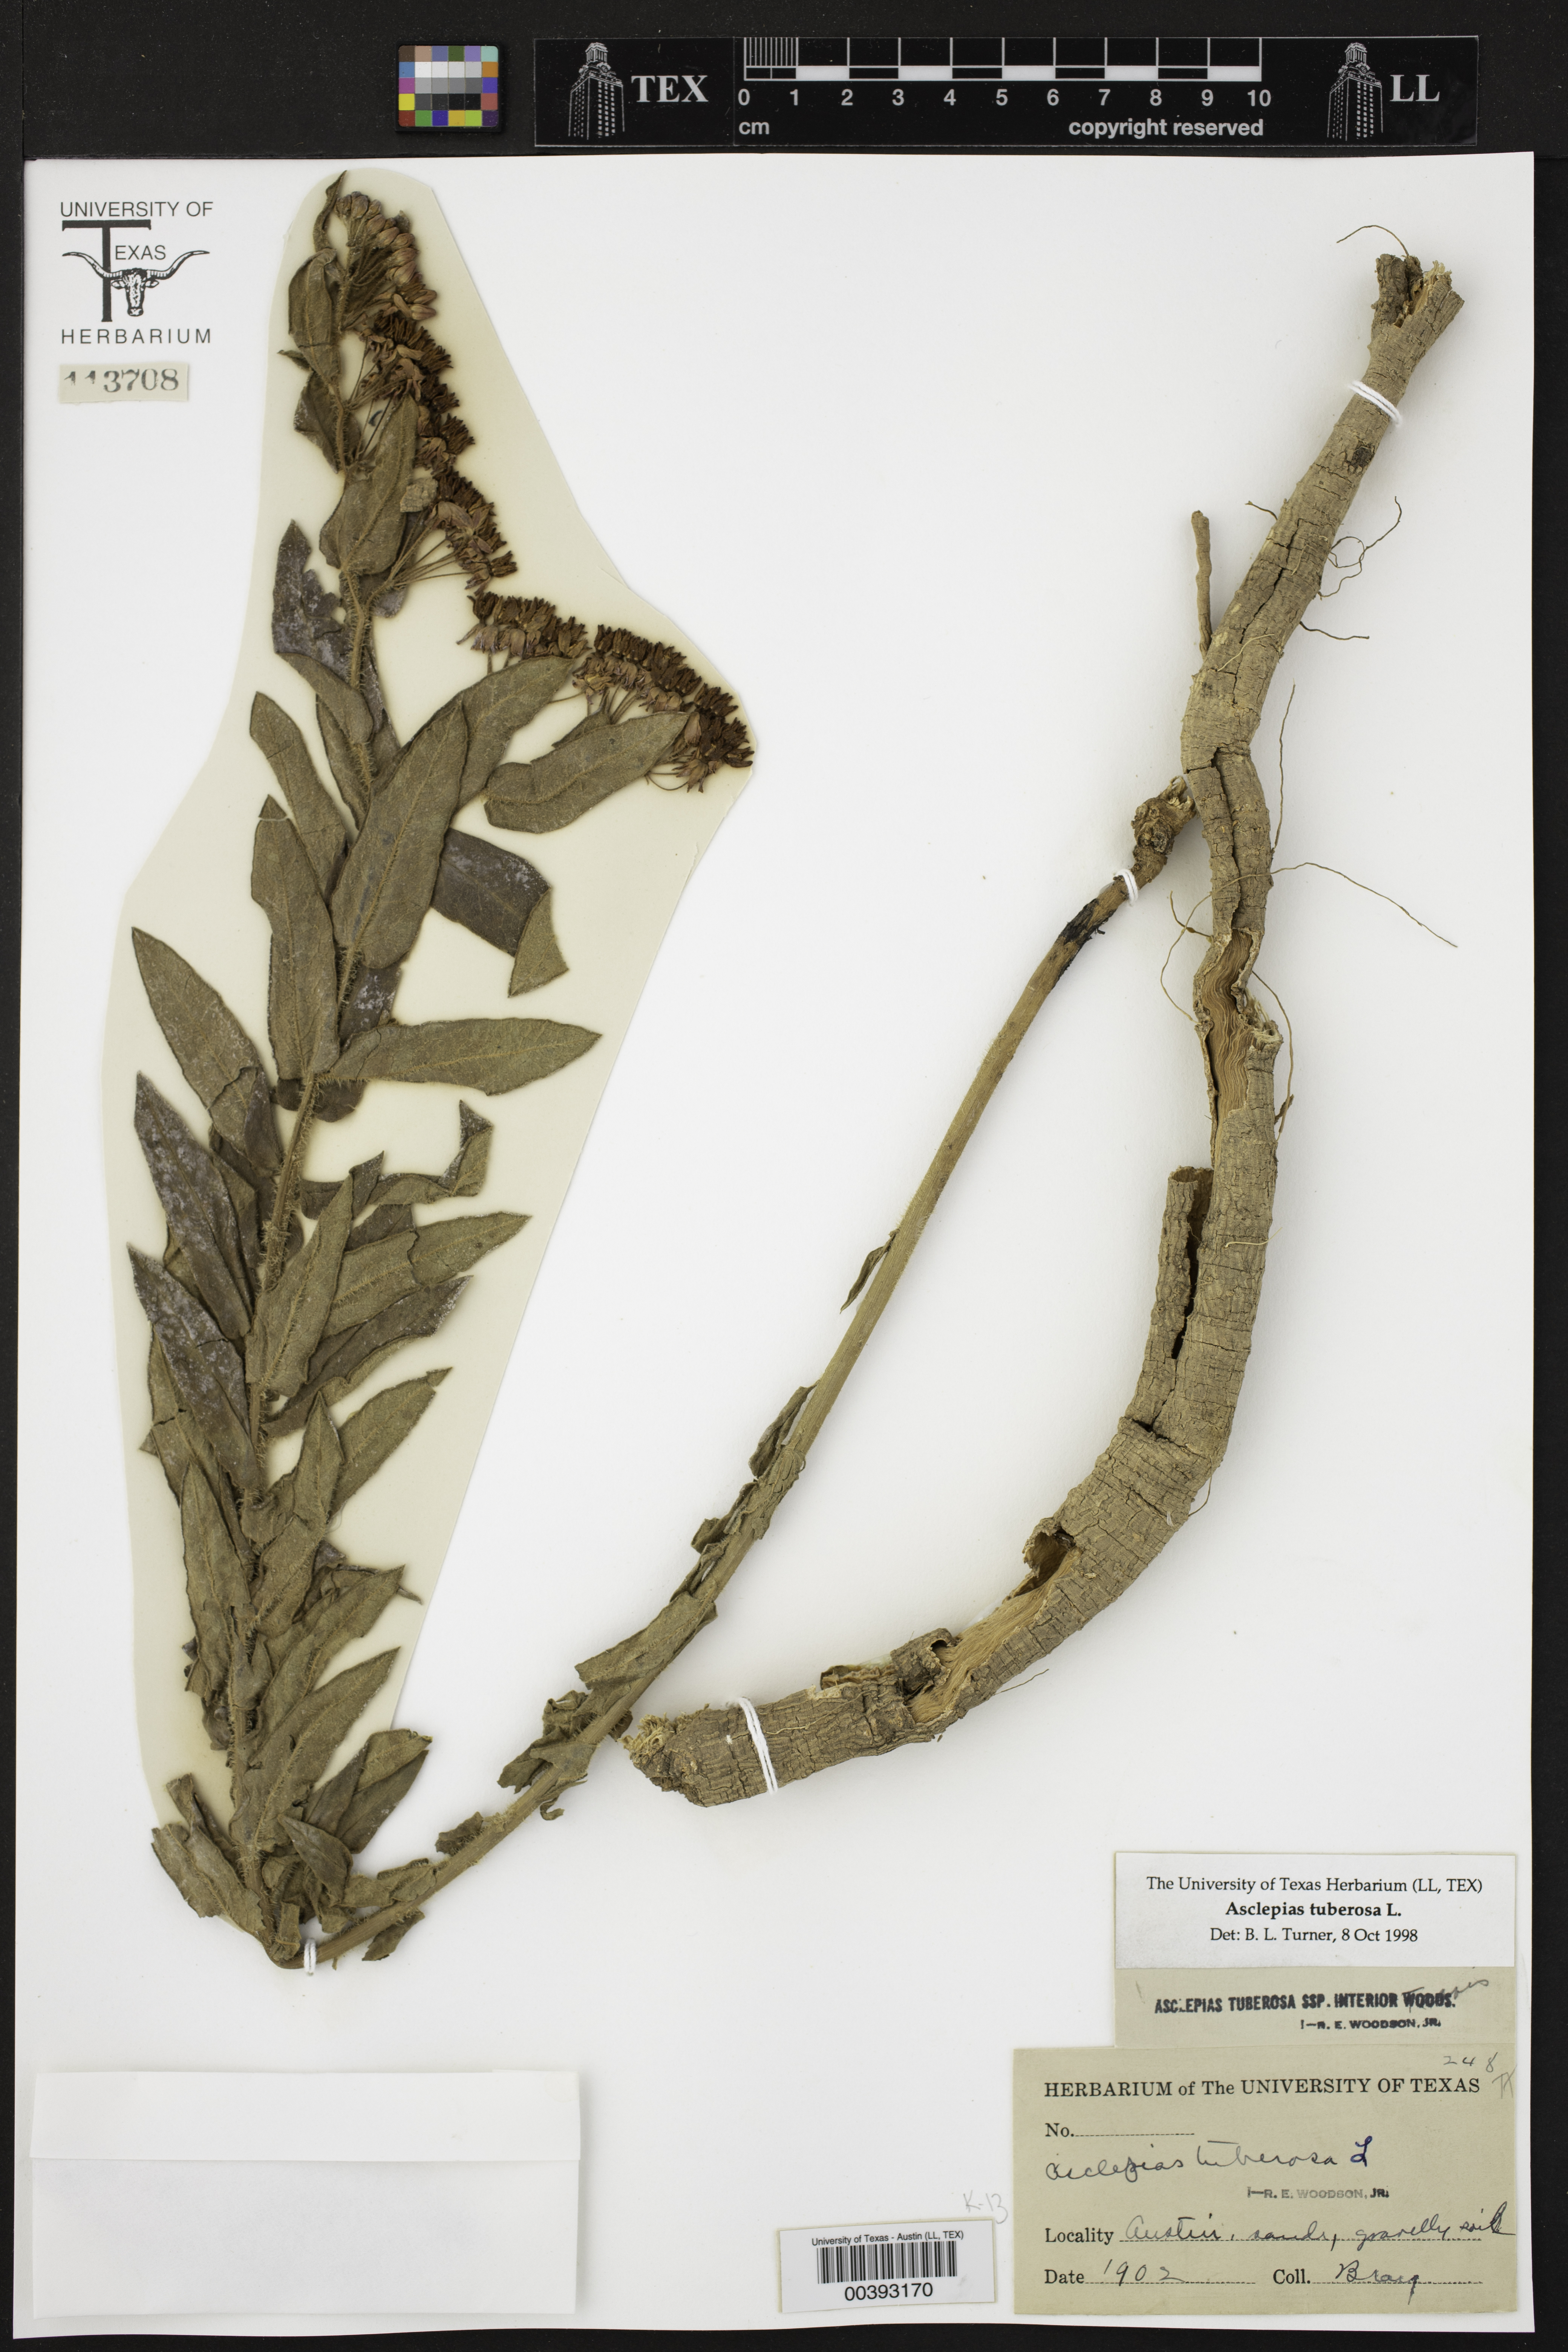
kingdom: Plantae
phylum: Tracheophyta
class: Magnoliopsida
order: Gentianales
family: Apocynaceae
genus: Asclepias
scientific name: Asclepias tuberosa
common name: Butterfly milkweed
